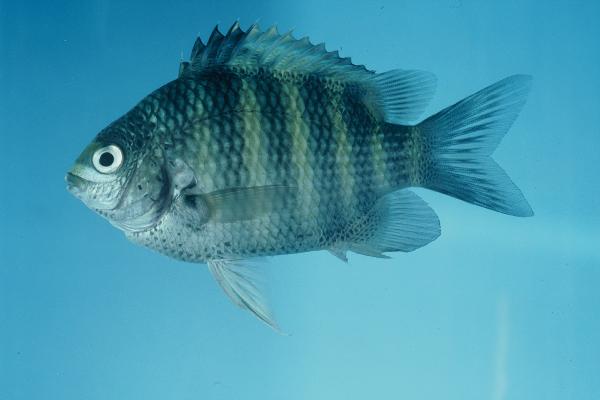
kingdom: Animalia
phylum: Chordata
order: Perciformes
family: Pomacentridae
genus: Abudefduf
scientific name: Abudefduf septemfasciatus
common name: Banded sergeant
